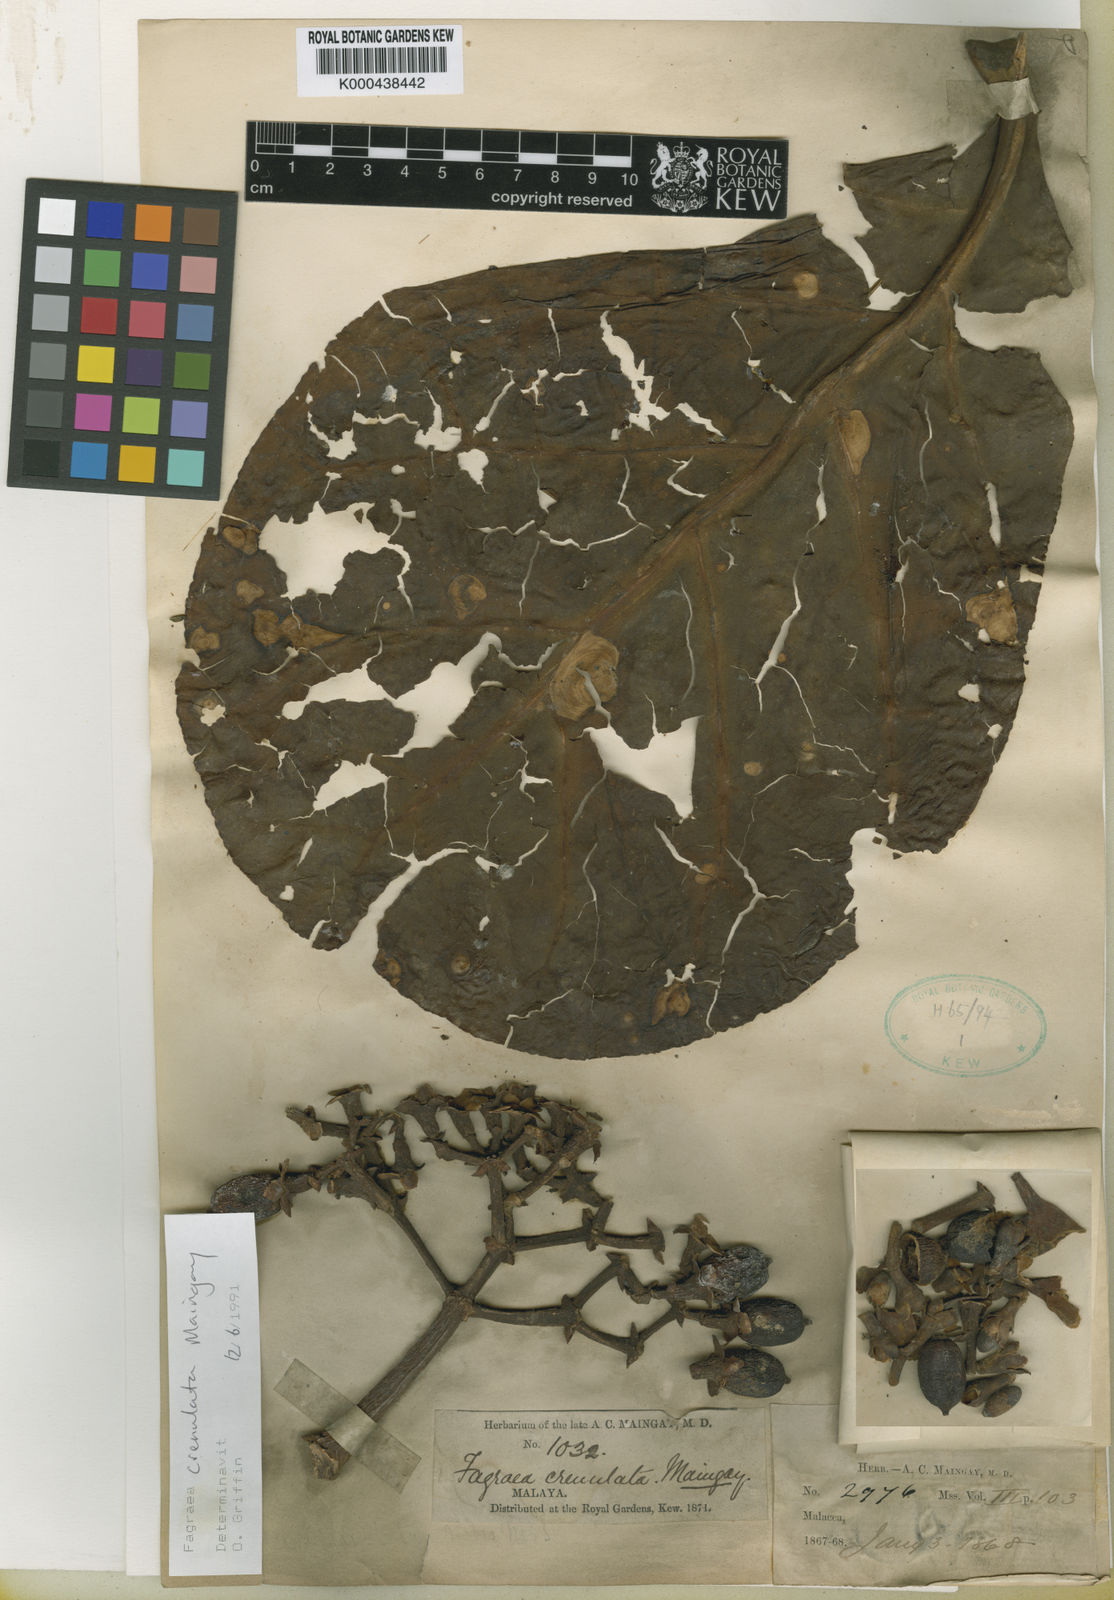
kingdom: Plantae
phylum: Tracheophyta
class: Magnoliopsida
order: Gentianales
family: Gentianaceae
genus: Limahlania
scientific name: Limahlania crenulata
